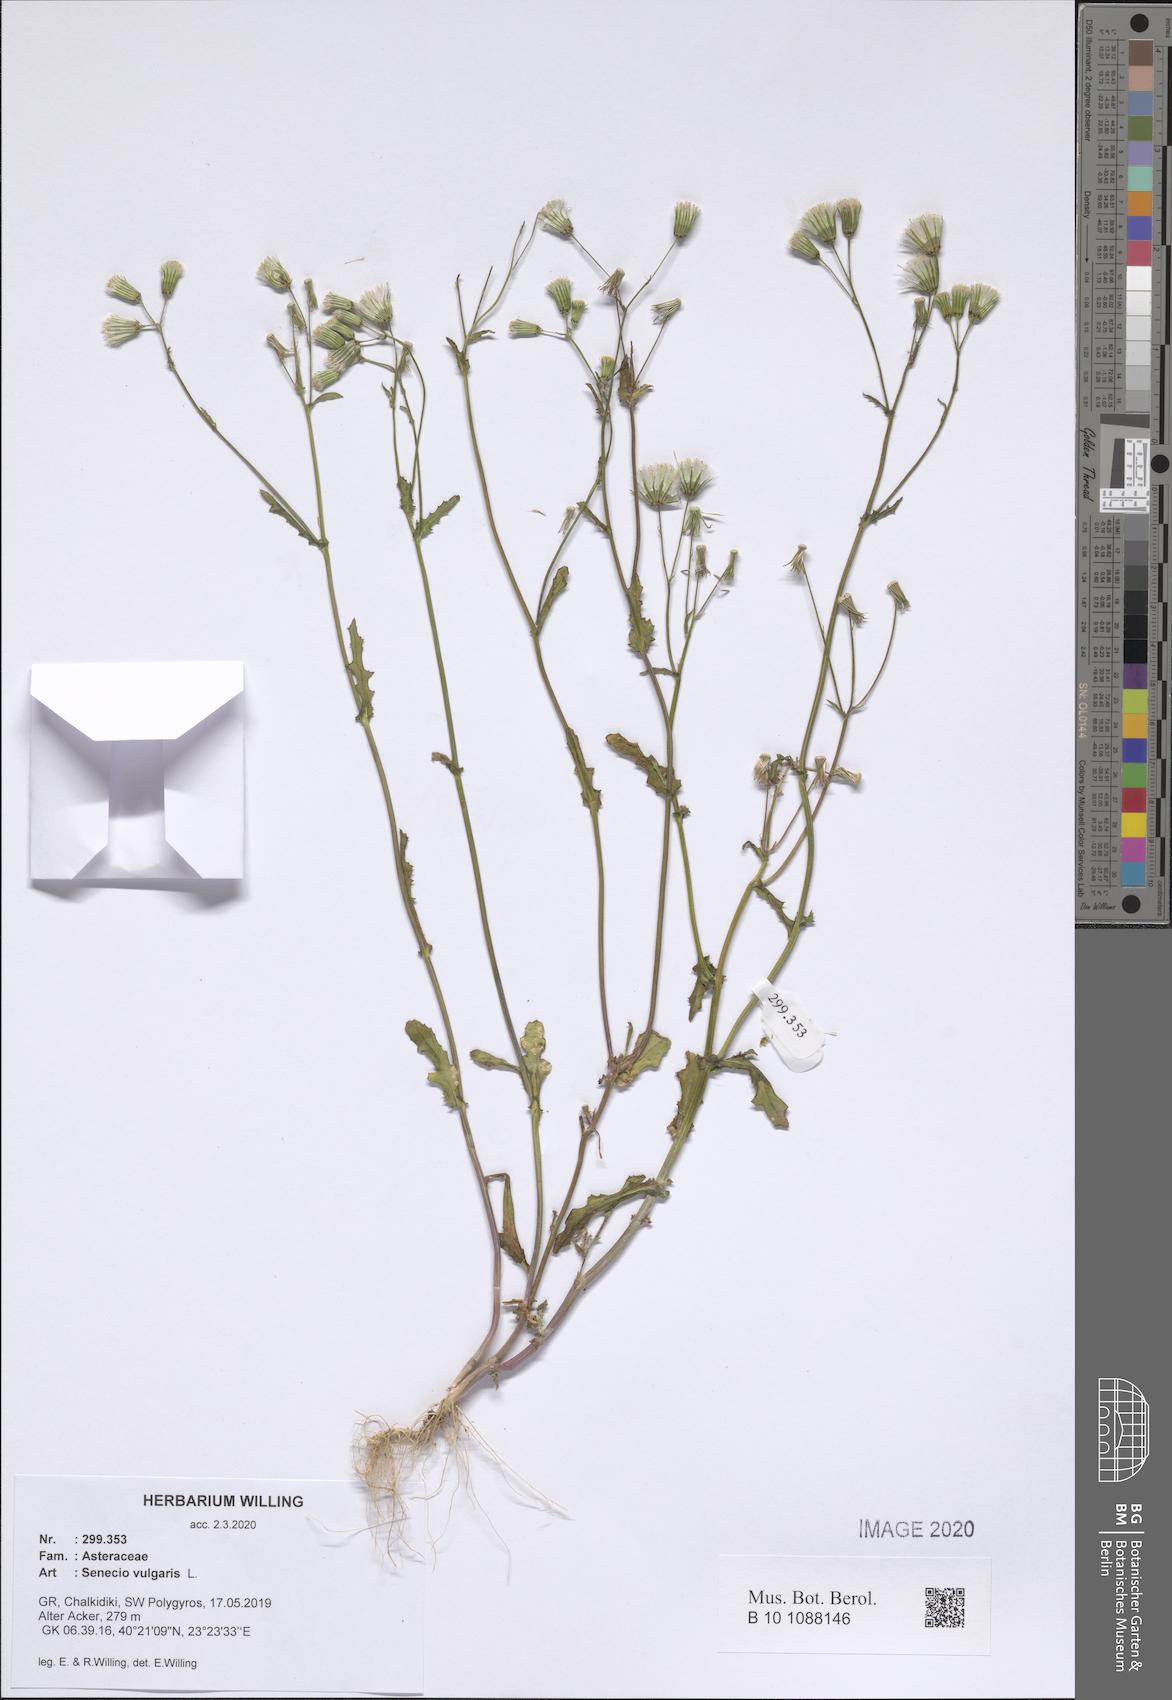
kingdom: Plantae
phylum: Tracheophyta
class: Magnoliopsida
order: Asterales
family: Asteraceae
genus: Senecio
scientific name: Senecio vulgaris
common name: Old-man-in-the-spring
